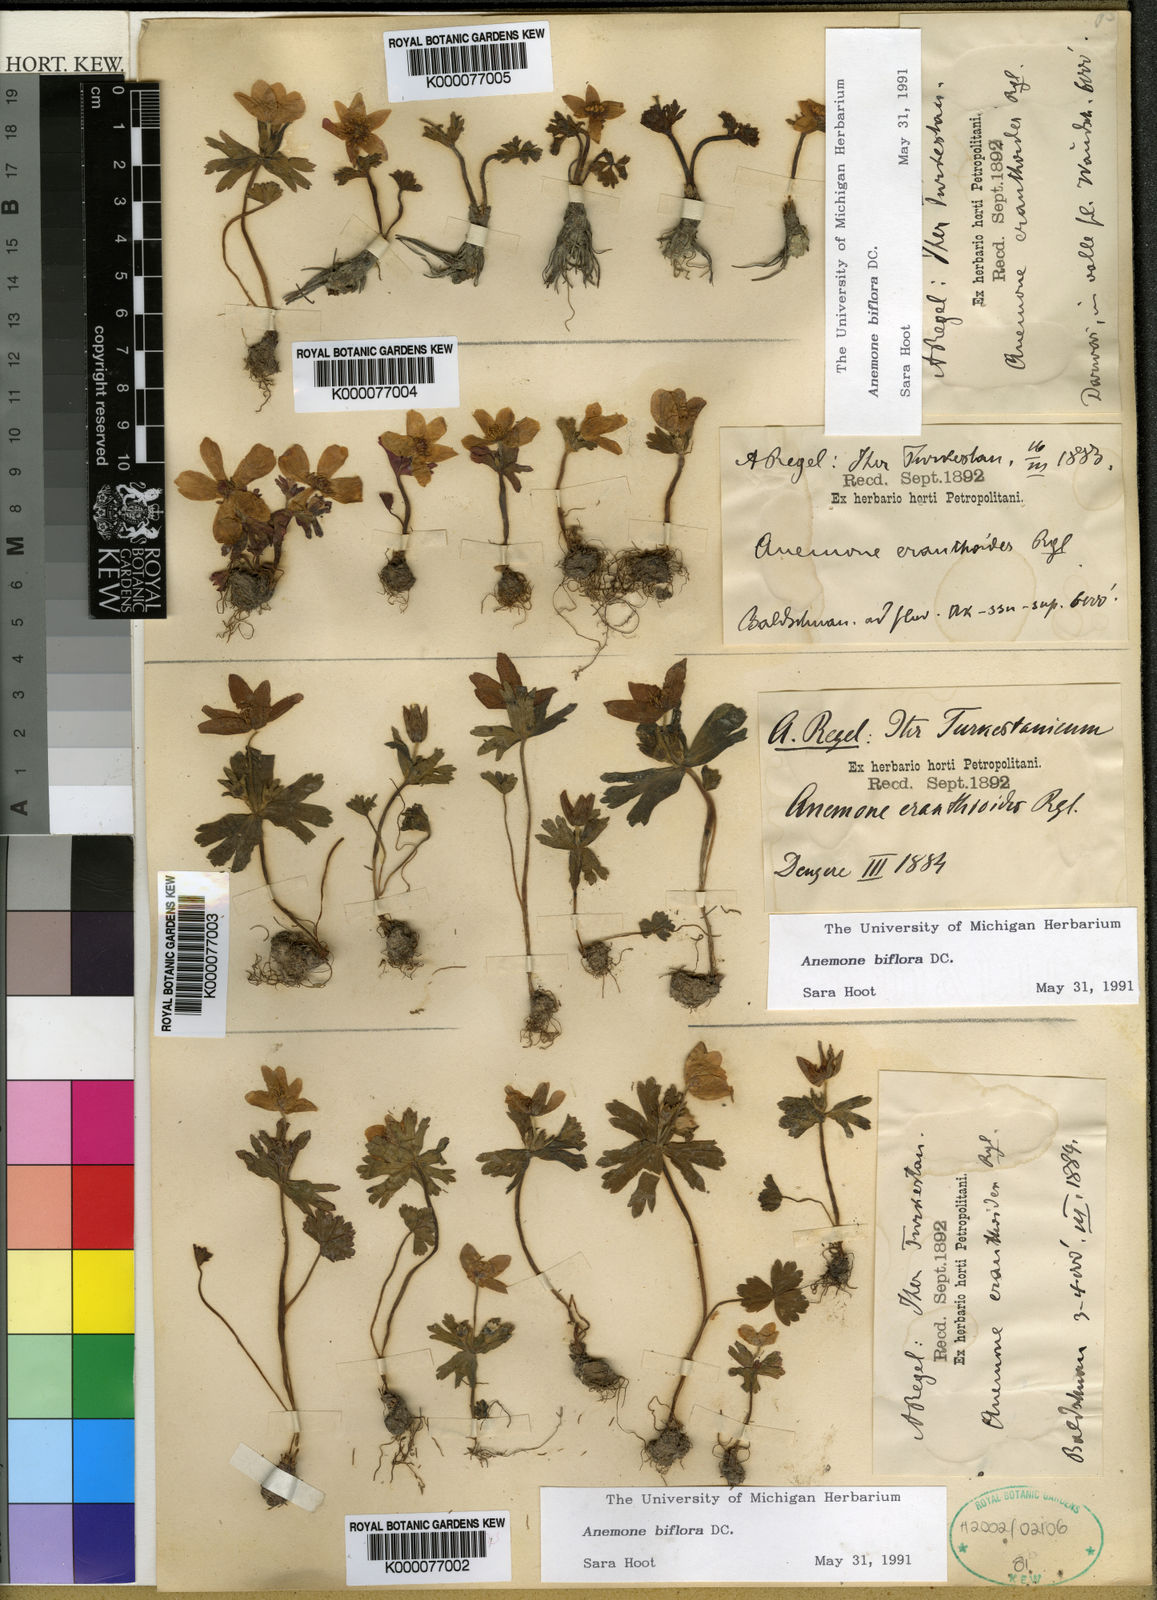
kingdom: Plantae
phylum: Tracheophyta
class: Magnoliopsida
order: Ranunculales
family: Ranunculaceae
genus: Anemone
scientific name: Anemone biflora
